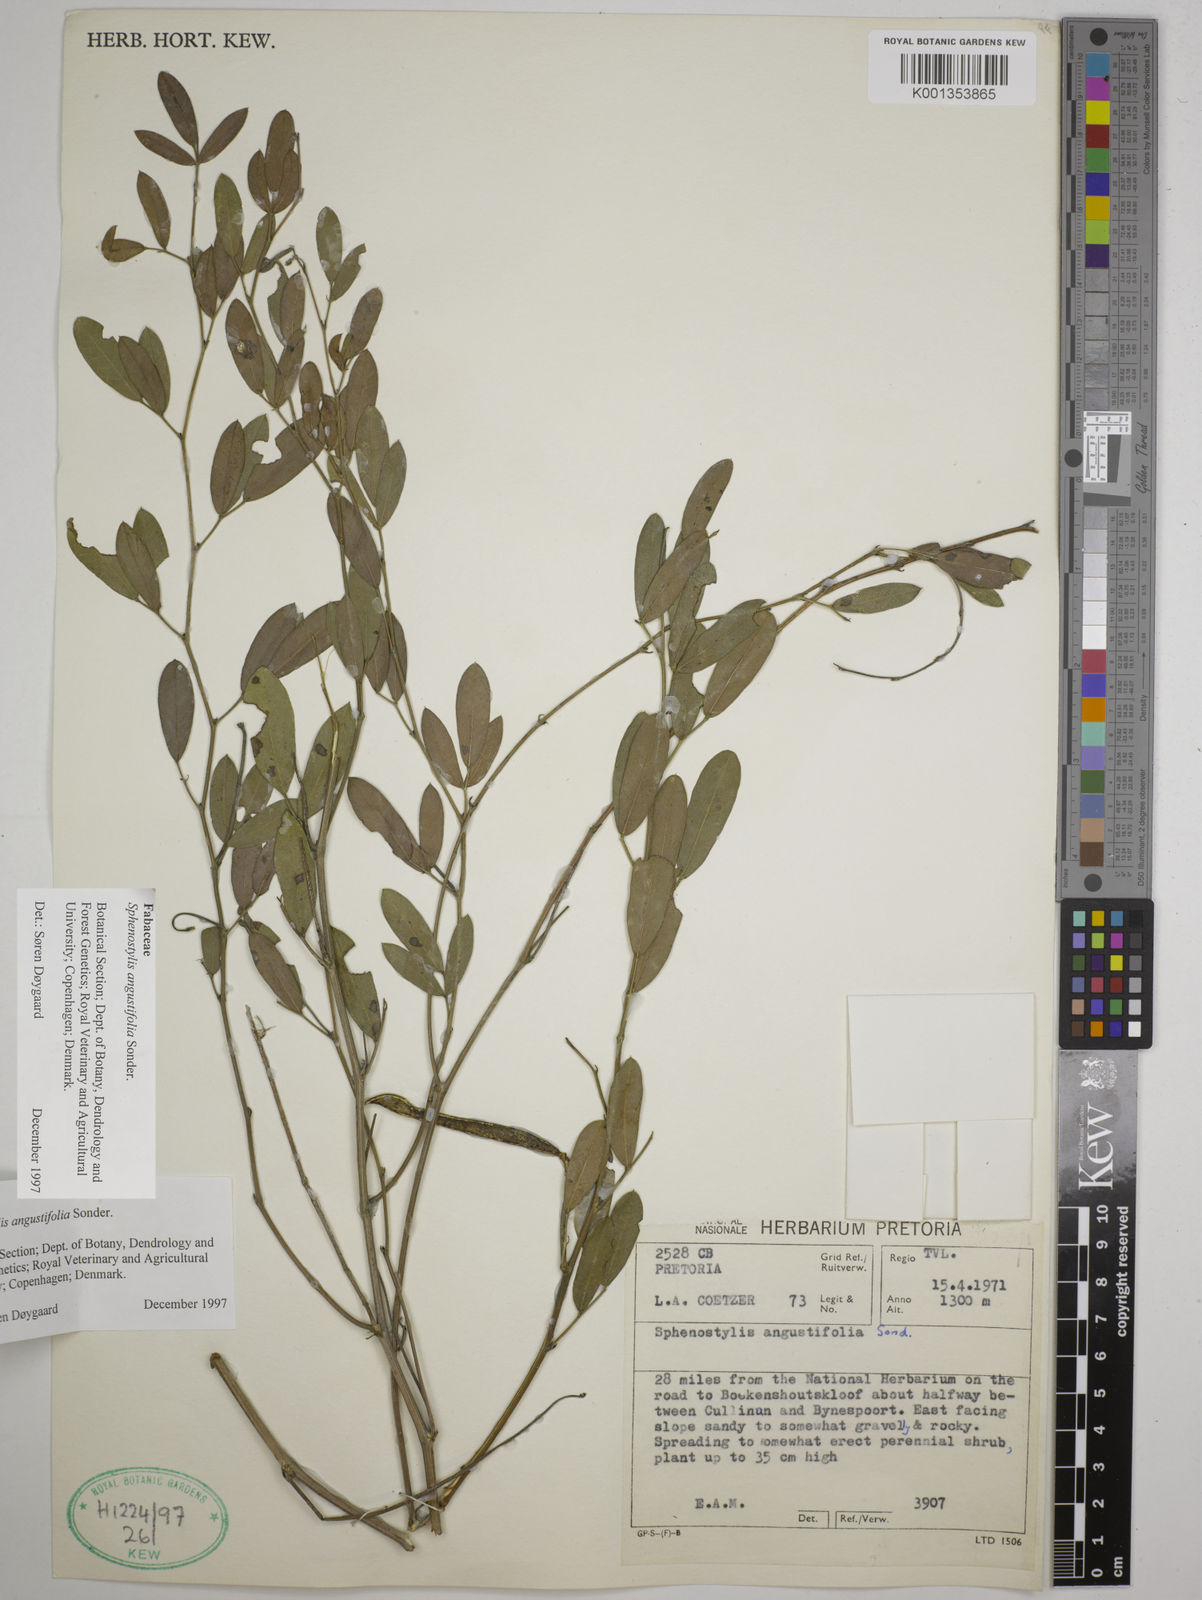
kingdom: Plantae
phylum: Tracheophyta
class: Magnoliopsida
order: Fabales
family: Fabaceae
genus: Sphenostylis
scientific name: Sphenostylis angustifolia
